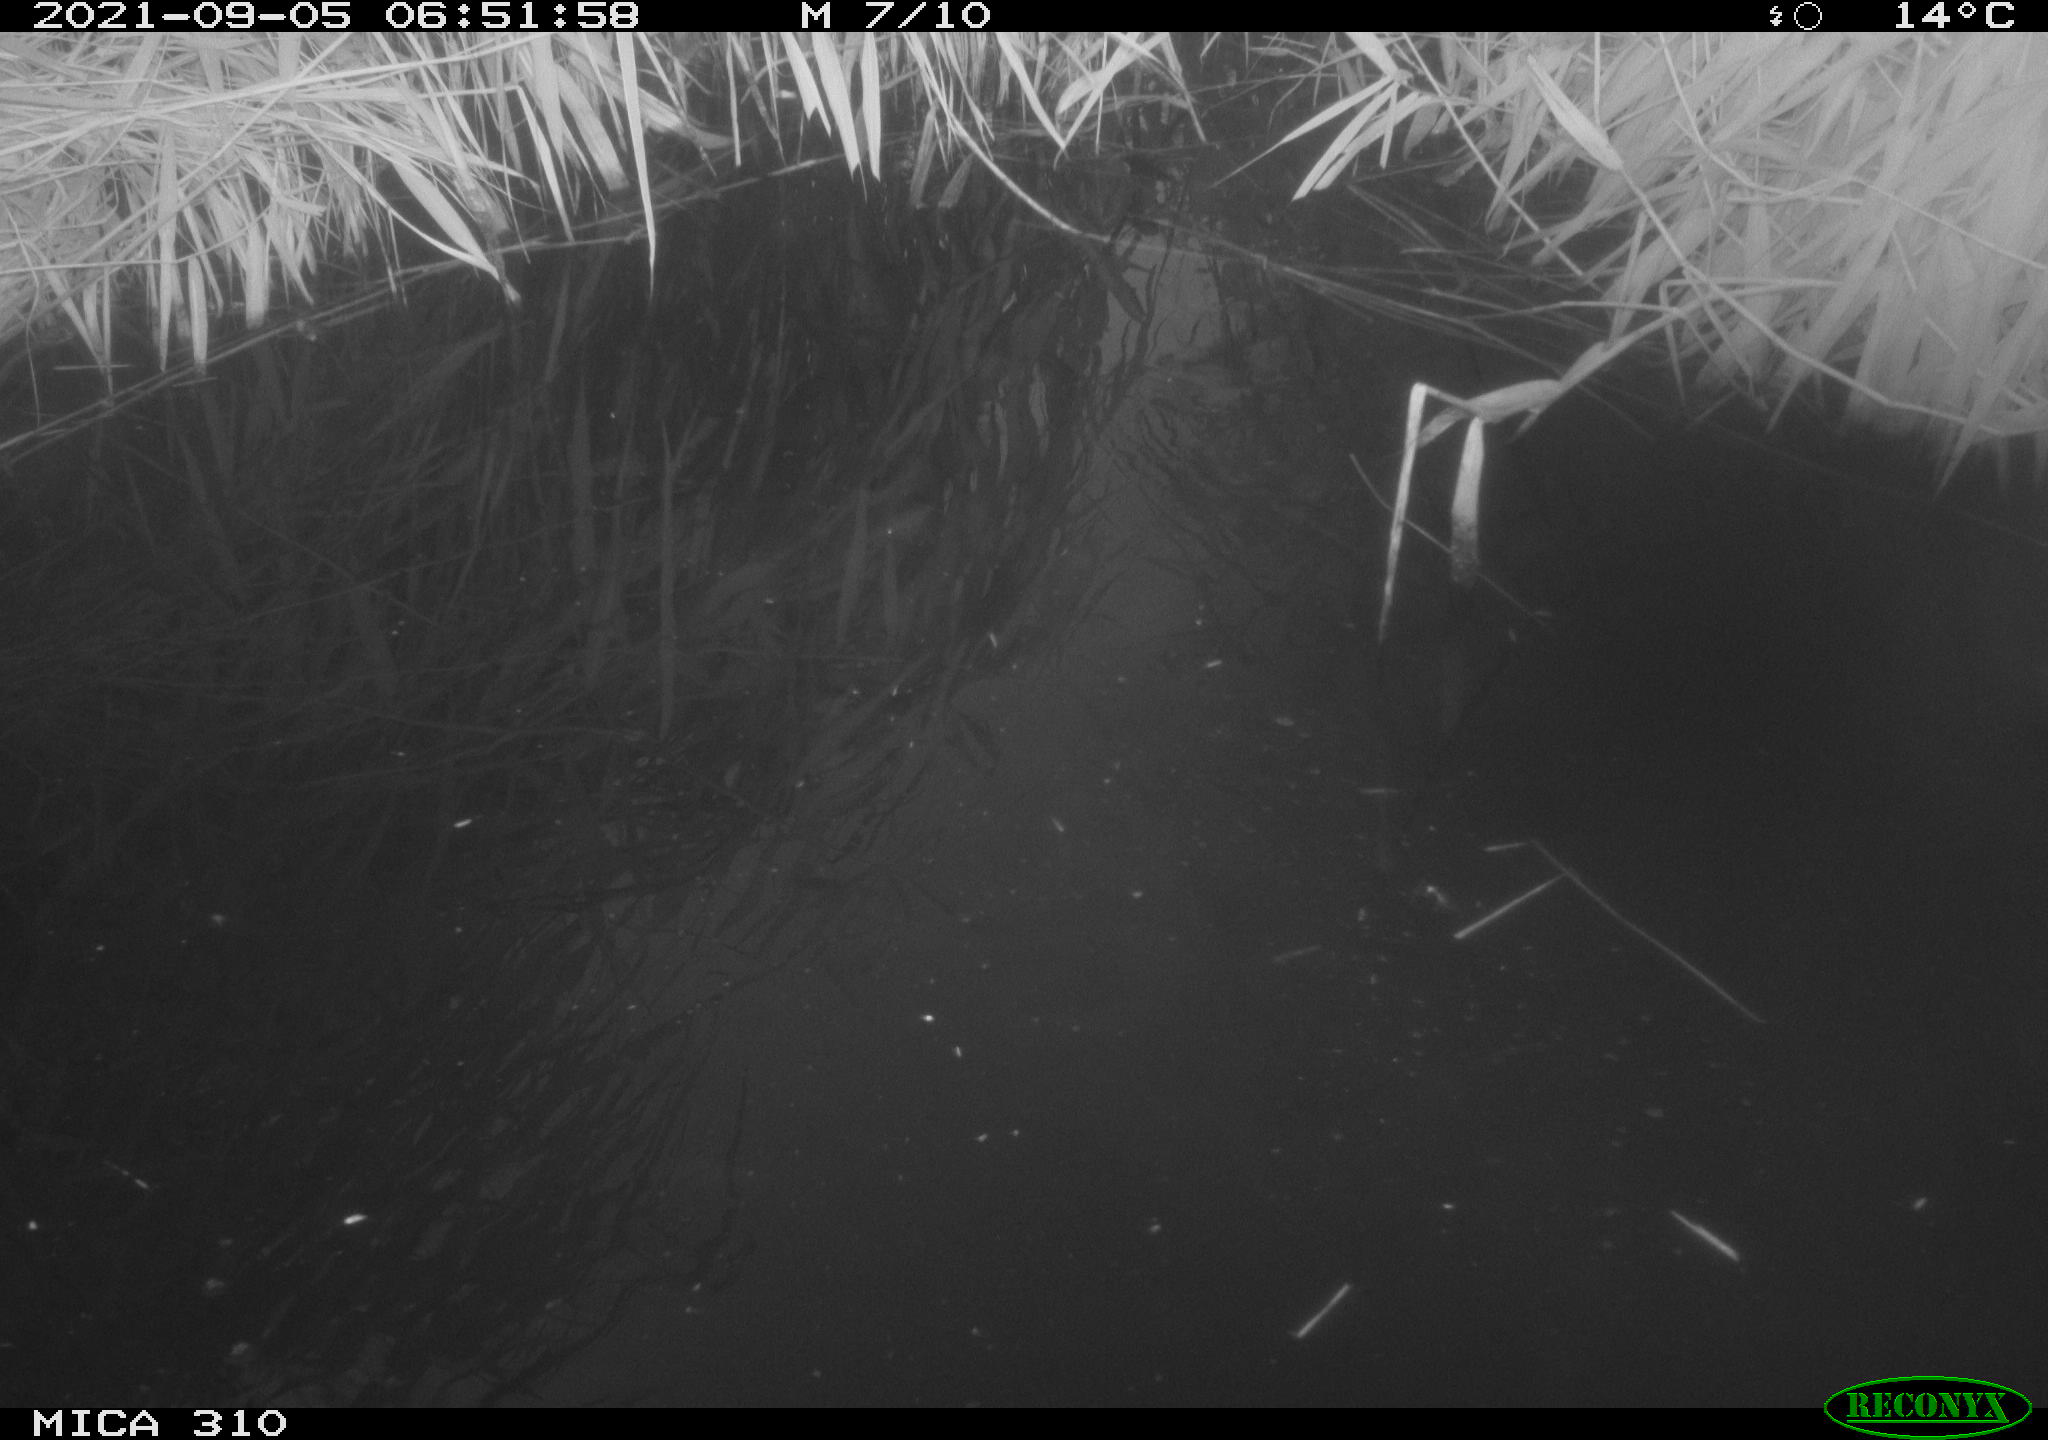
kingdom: Animalia
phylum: Chordata
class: Aves
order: Anseriformes
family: Anatidae
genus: Anas
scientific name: Anas platyrhynchos
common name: Mallard
